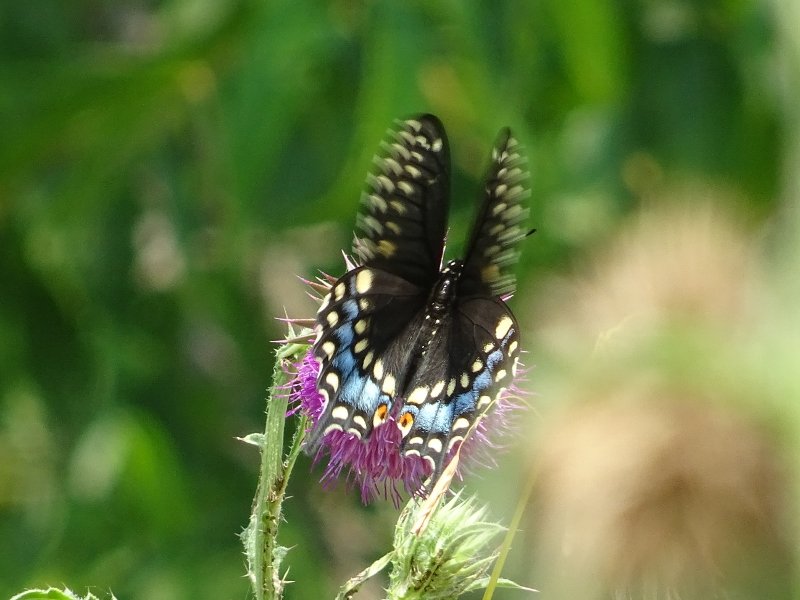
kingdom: Animalia
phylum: Arthropoda
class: Insecta
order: Lepidoptera
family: Papilionidae
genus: Papilio
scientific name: Papilio polyxenes
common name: Black Swallowtail
